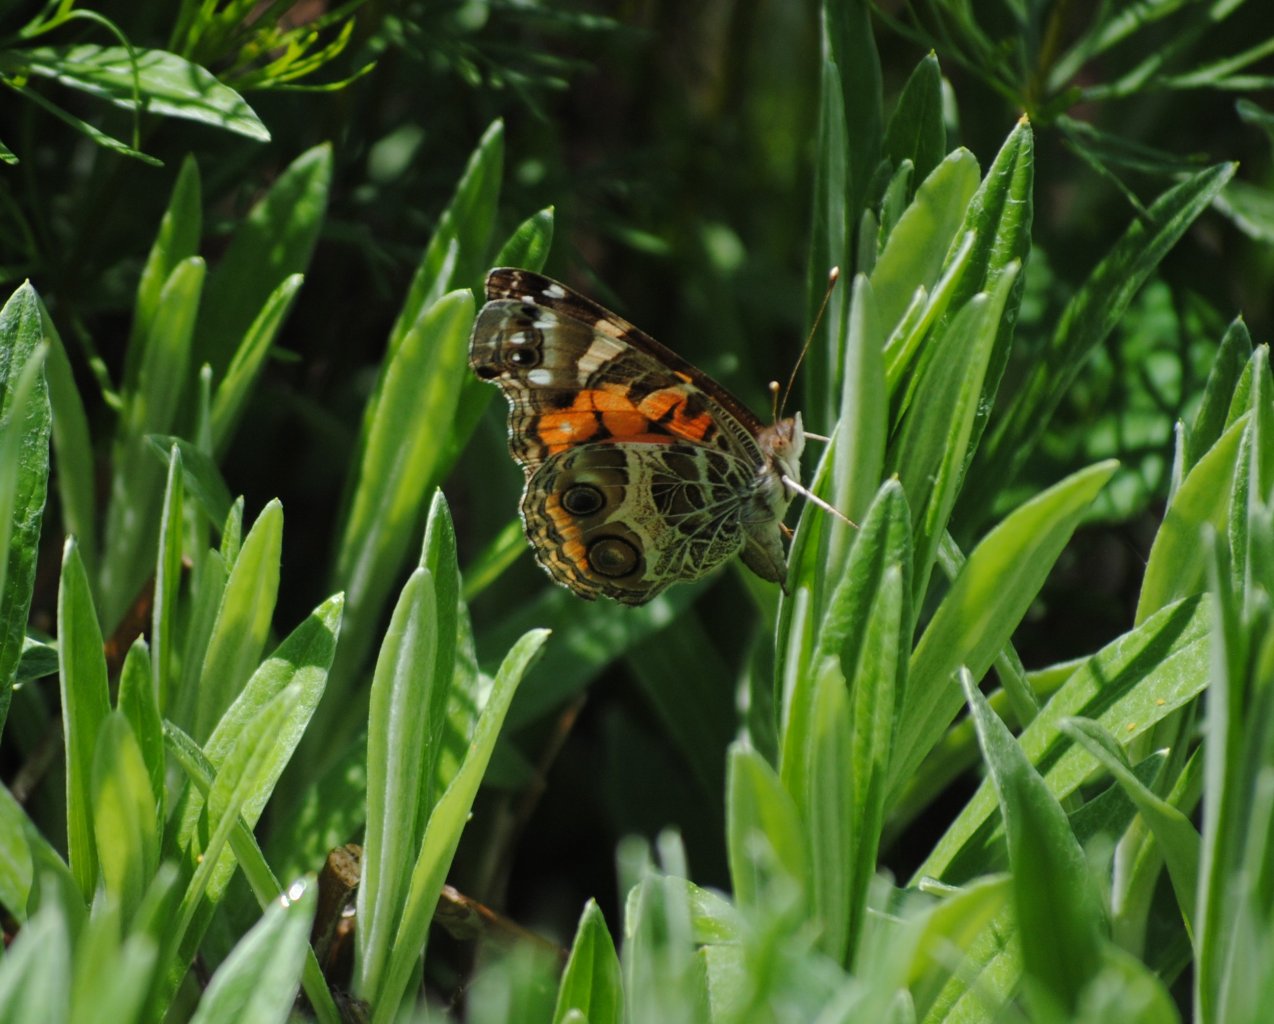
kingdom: Animalia
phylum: Arthropoda
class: Insecta
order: Lepidoptera
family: Nymphalidae
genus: Vanessa
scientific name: Vanessa virginiensis
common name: American Lady
